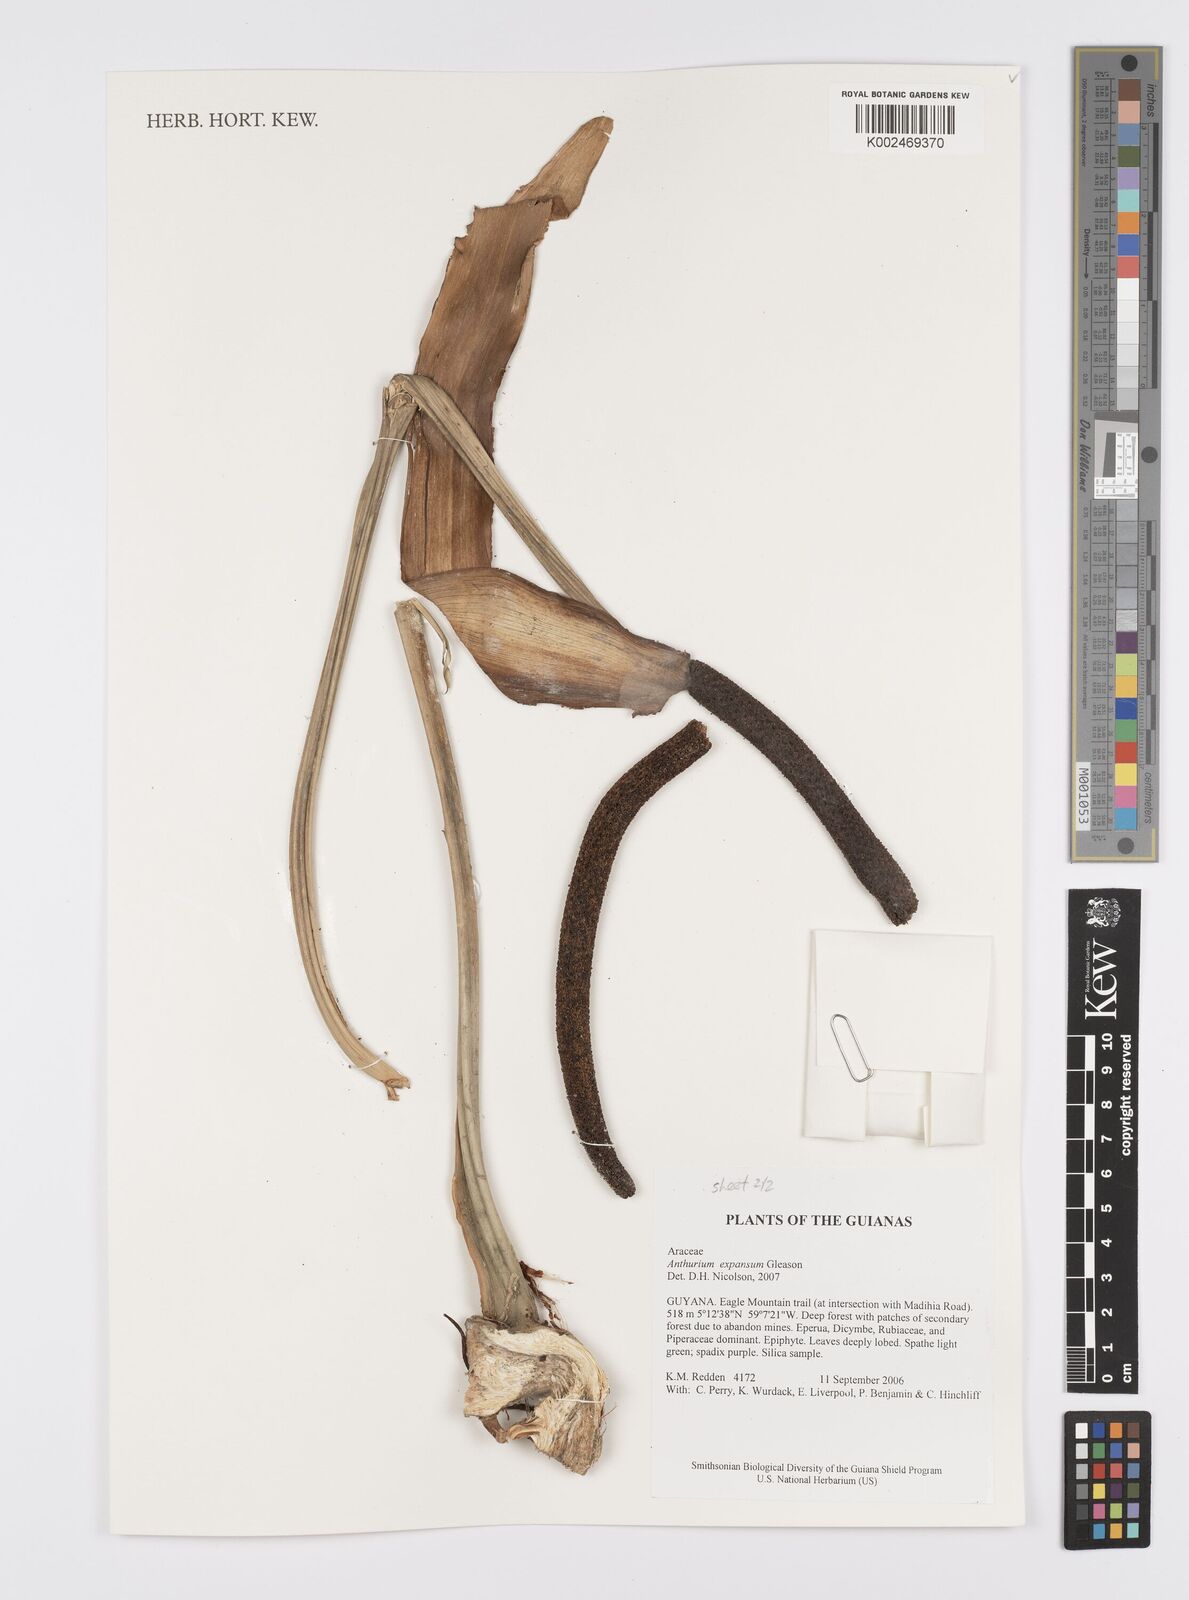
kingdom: Plantae
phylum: Tracheophyta
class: Liliopsida
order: Alismatales
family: Araceae
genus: Anthurium
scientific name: Anthurium expansum
